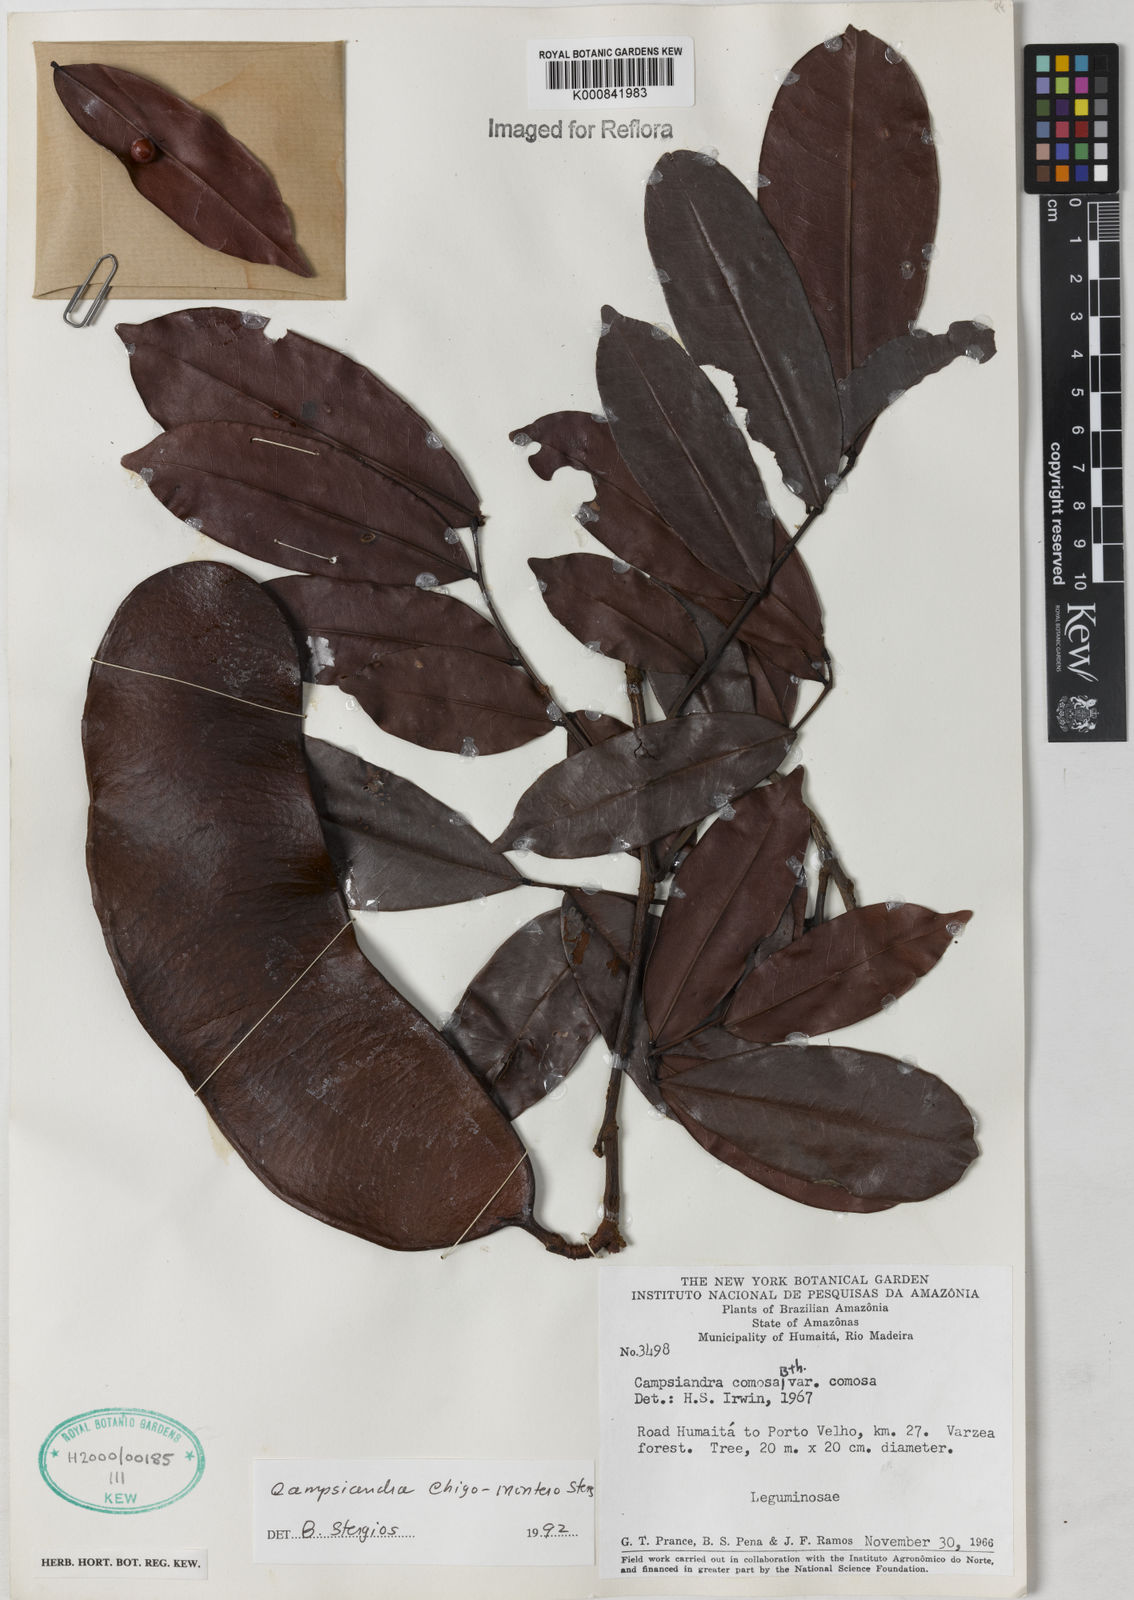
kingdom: Plantae
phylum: Tracheophyta
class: Magnoliopsida
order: Fabales
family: Fabaceae
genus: Campsiandra
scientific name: Campsiandra chigo-montero
